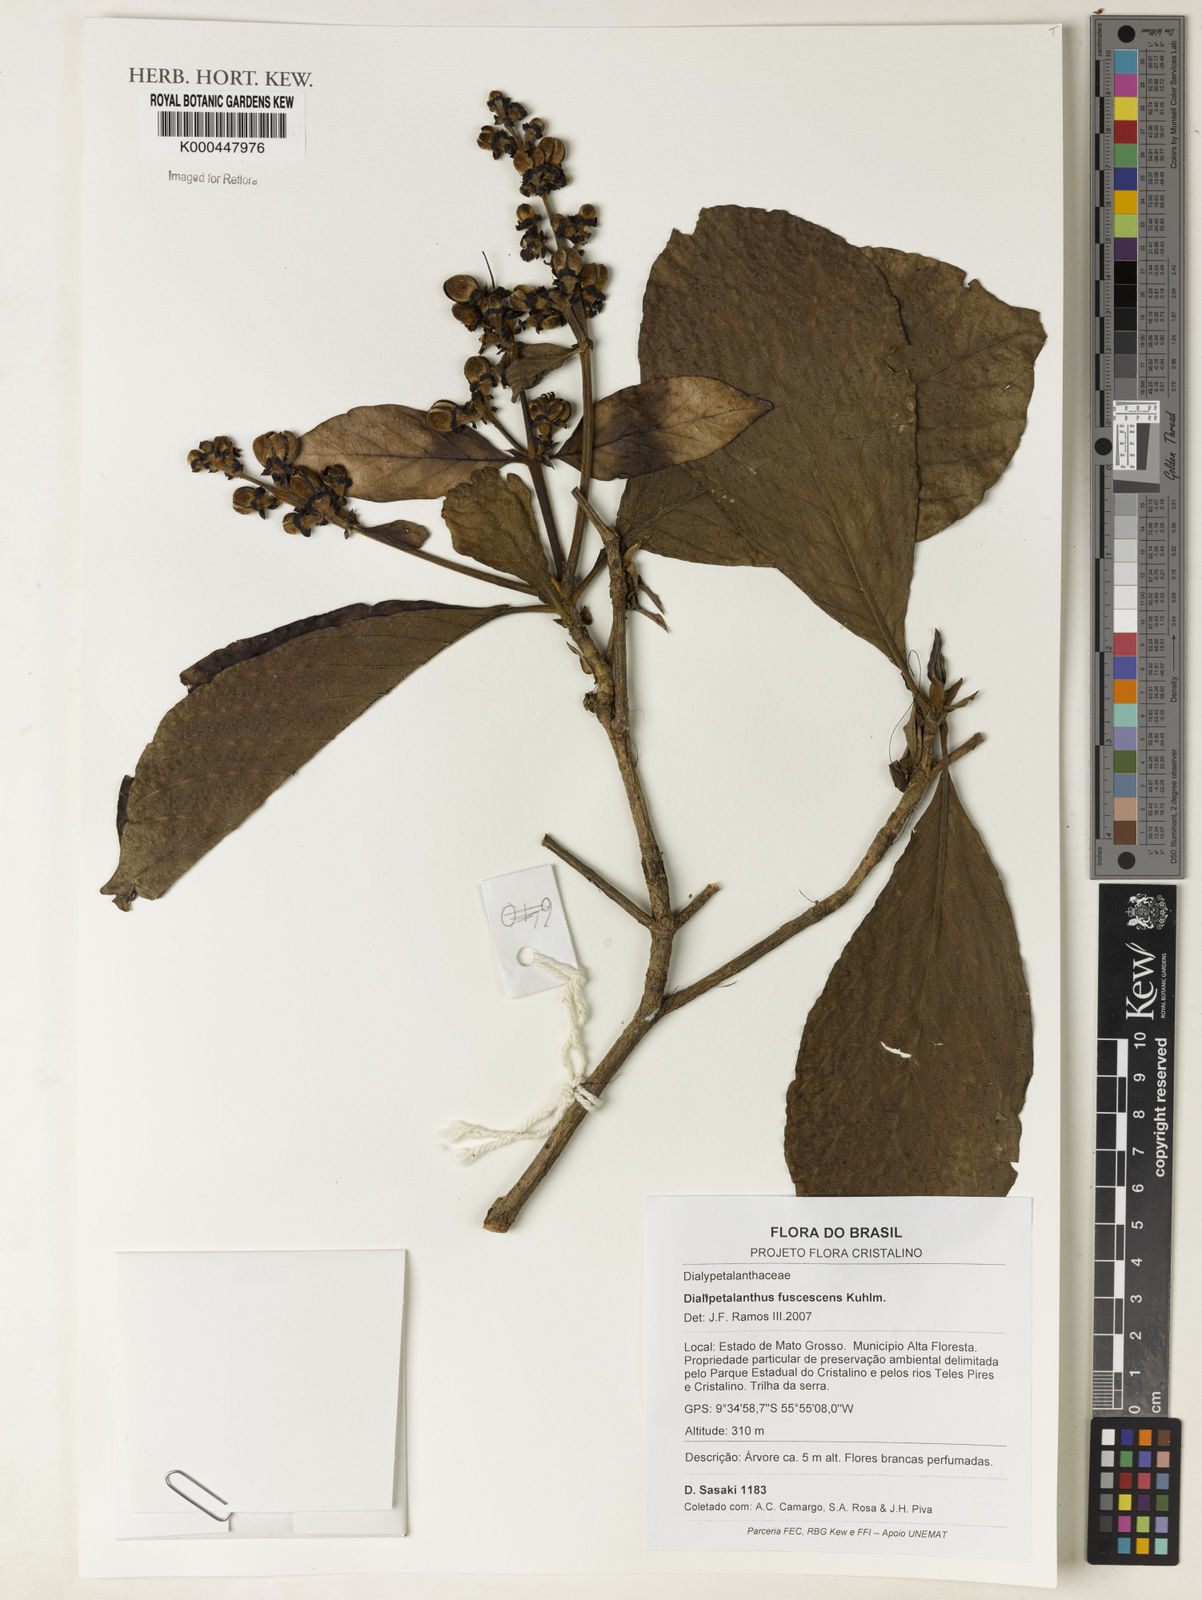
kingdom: Plantae
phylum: Tracheophyta
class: Magnoliopsida
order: Gentianales
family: Rubiaceae
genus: Dialypetalanthus
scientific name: Dialypetalanthus fuscescens
